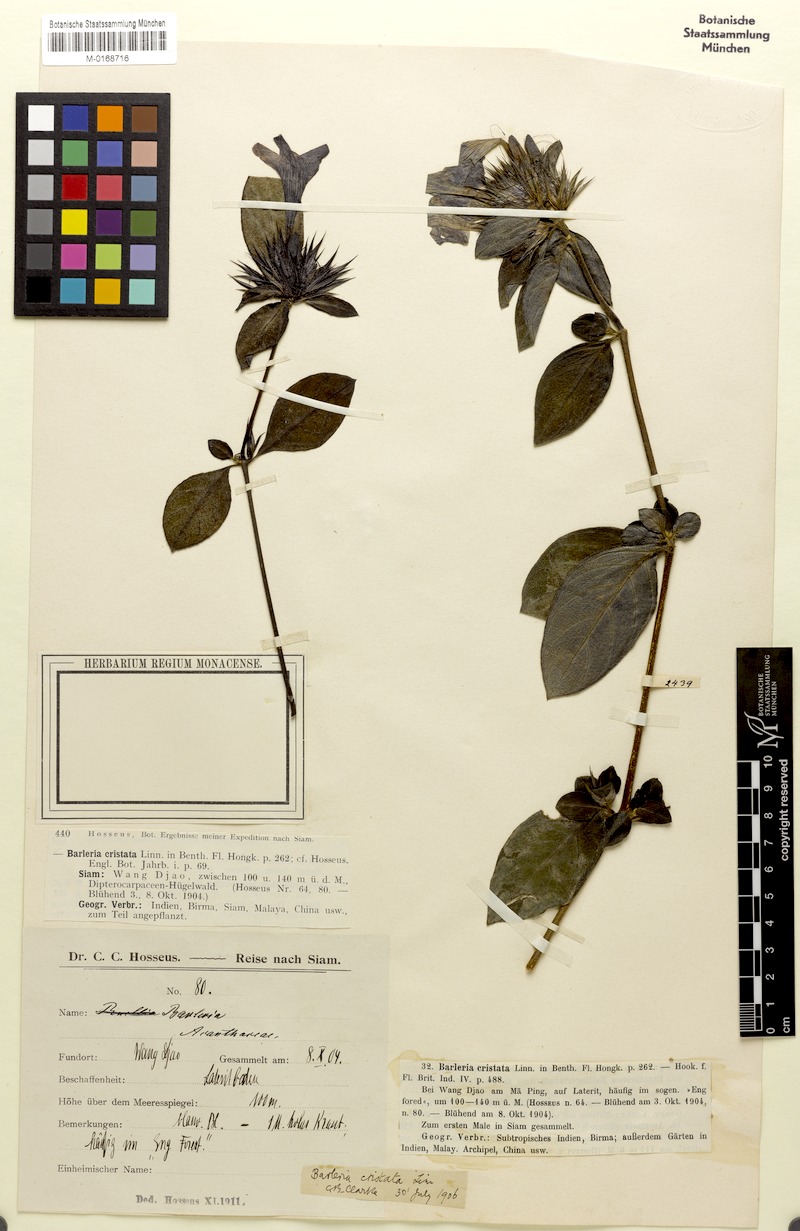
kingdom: Plantae
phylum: Tracheophyta
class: Magnoliopsida
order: Lamiales
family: Acanthaceae
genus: Barleria
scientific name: Barleria cristata
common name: Crested philippine violet
